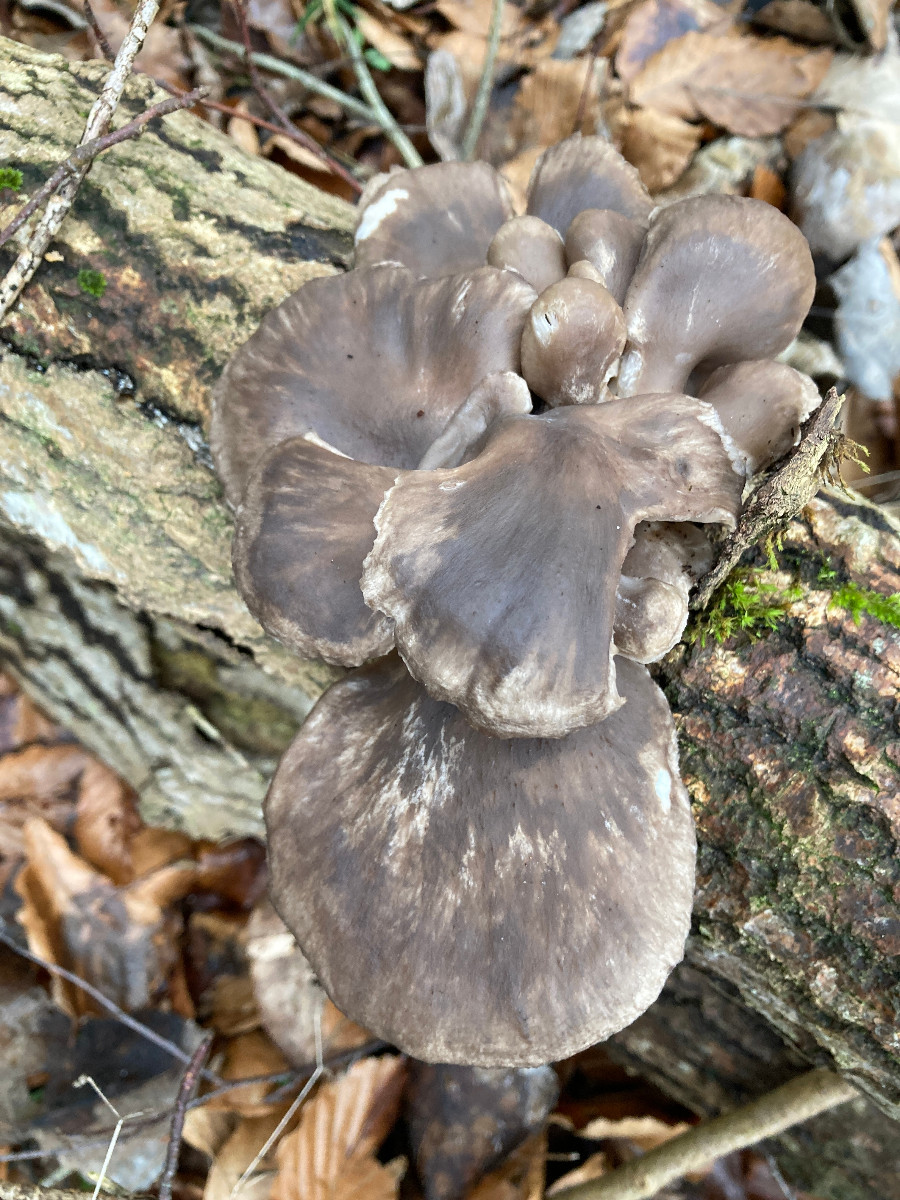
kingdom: Fungi
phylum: Basidiomycota
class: Agaricomycetes
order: Agaricales
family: Pleurotaceae
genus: Pleurotus
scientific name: Pleurotus ostreatus
